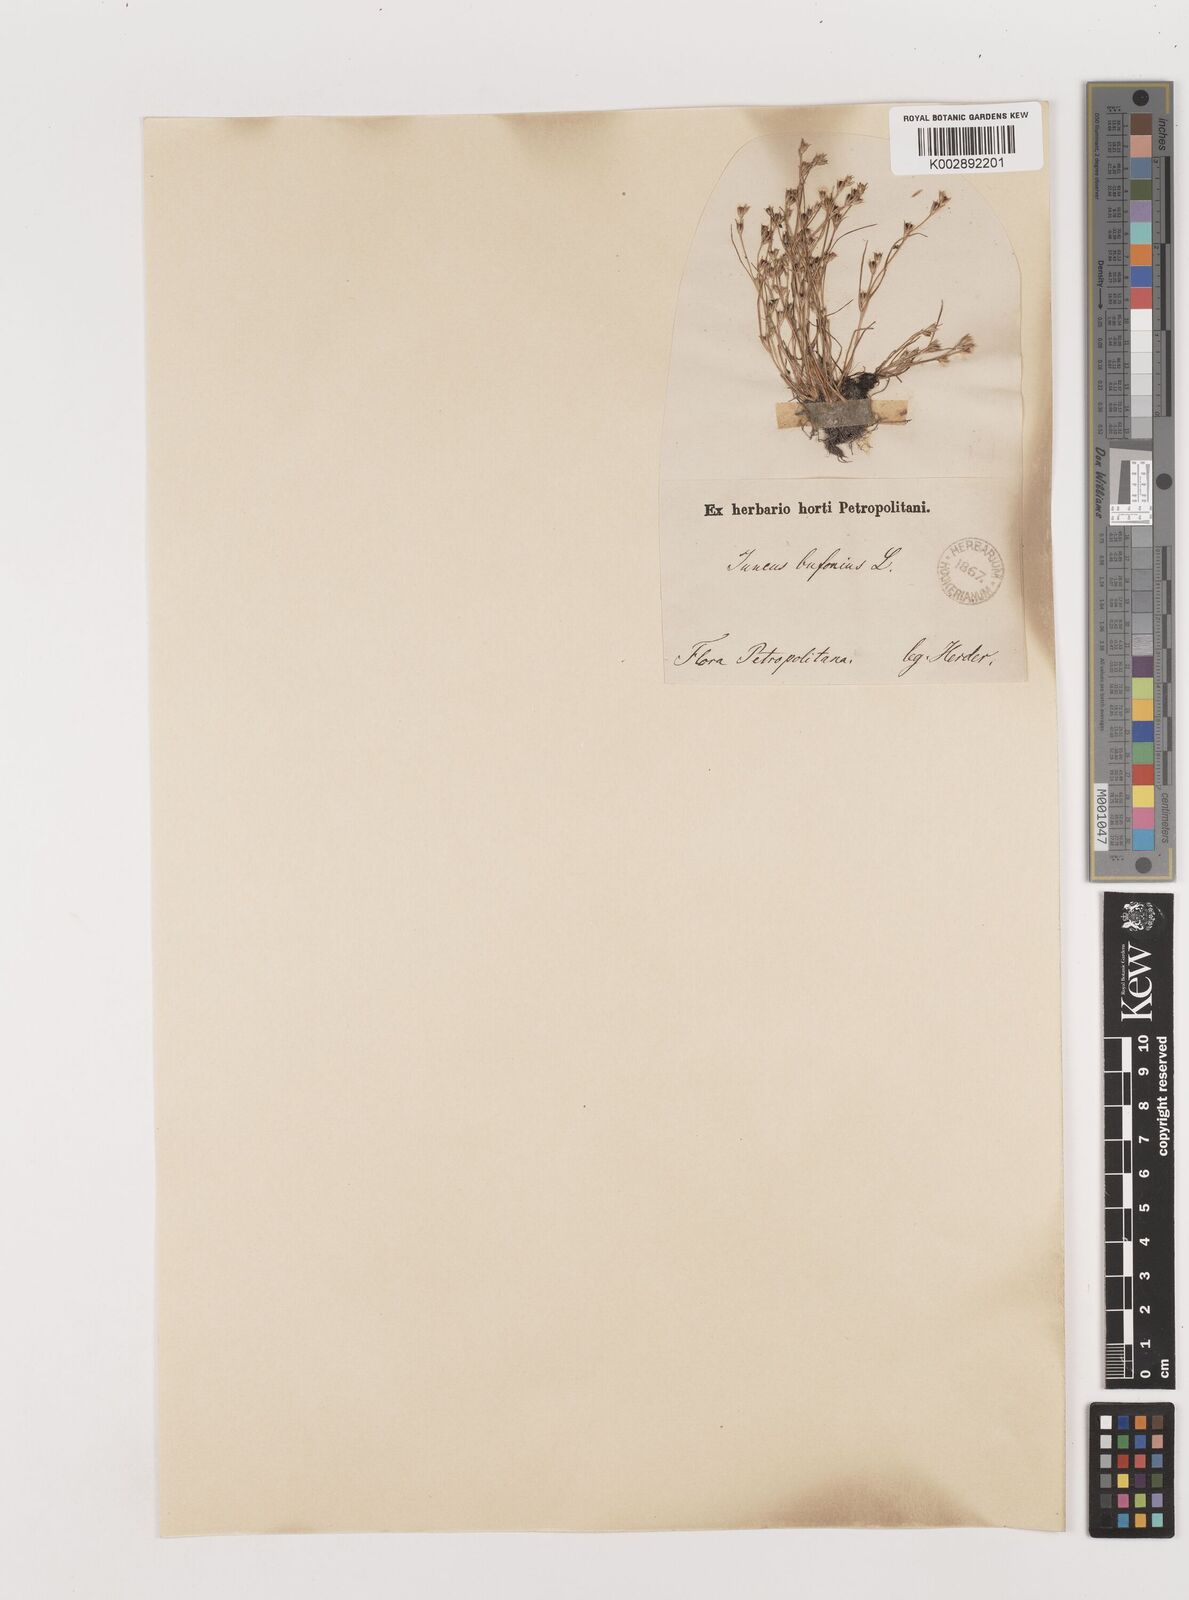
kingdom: Plantae
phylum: Tracheophyta
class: Liliopsida
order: Poales
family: Juncaceae
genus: Juncus
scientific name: Juncus bufonius
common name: Toad rush
